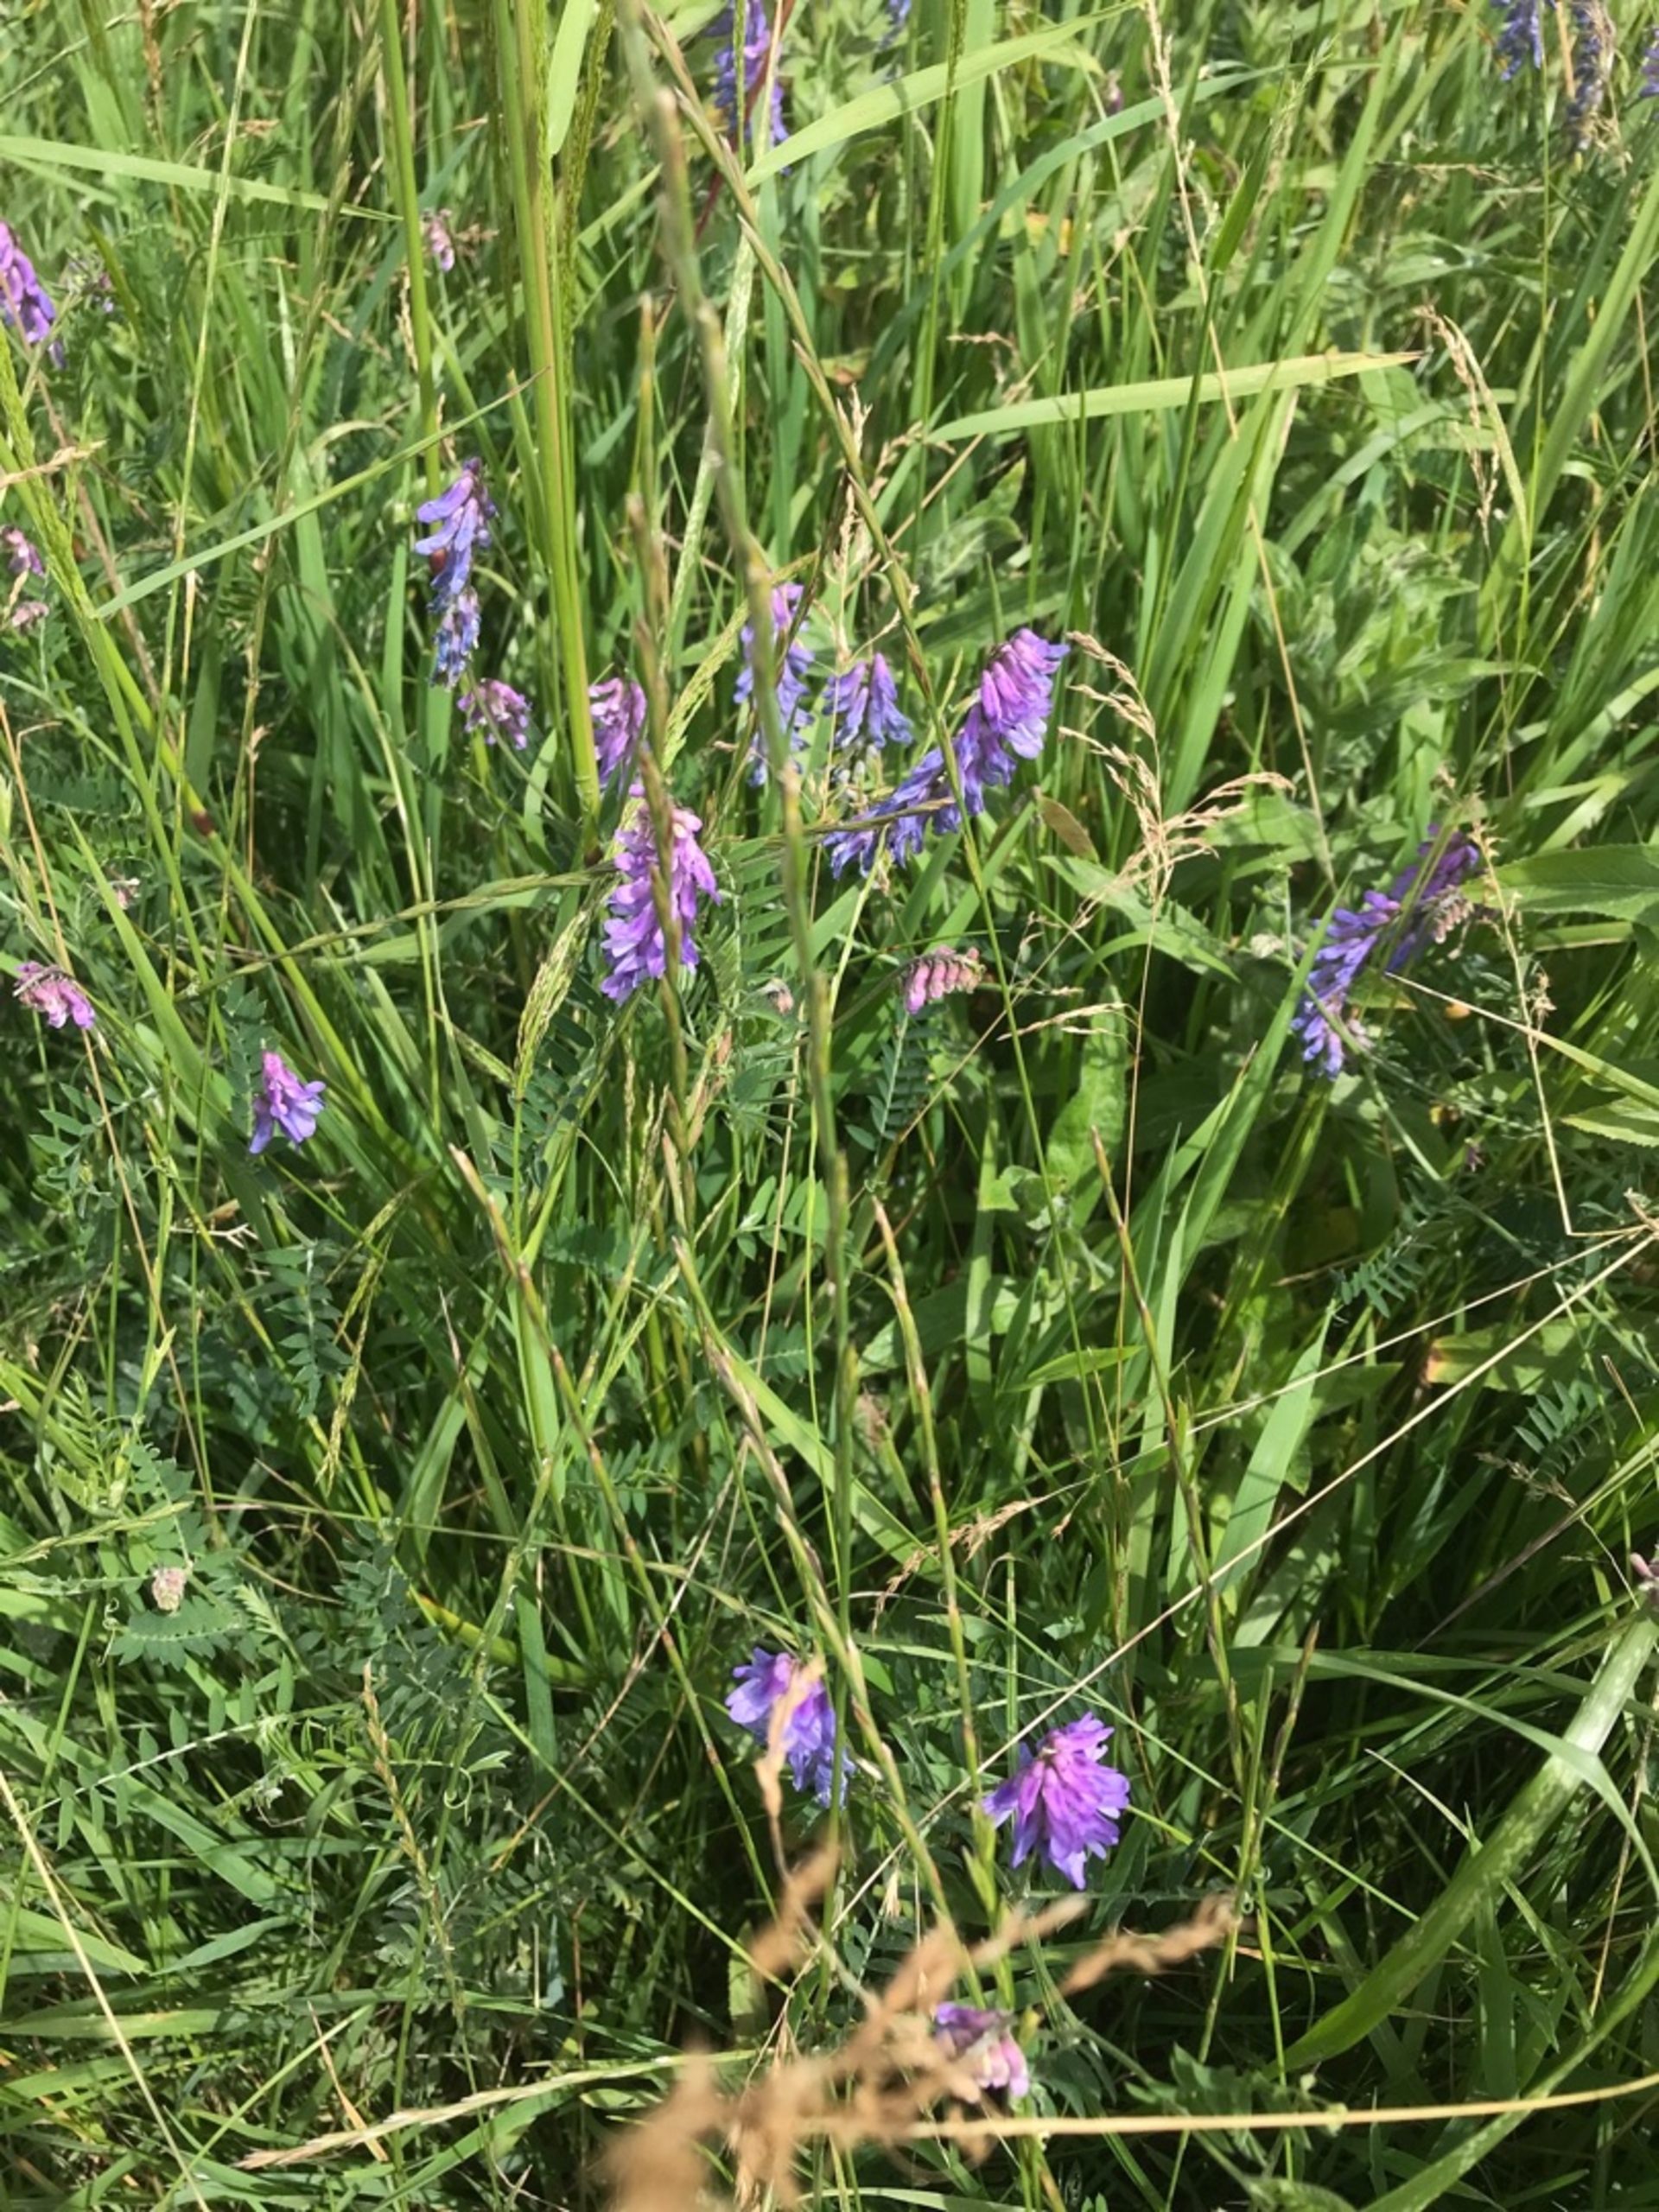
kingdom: Plantae
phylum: Tracheophyta
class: Magnoliopsida
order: Fabales
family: Fabaceae
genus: Vicia
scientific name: Vicia cracca
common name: Muse-vikke
